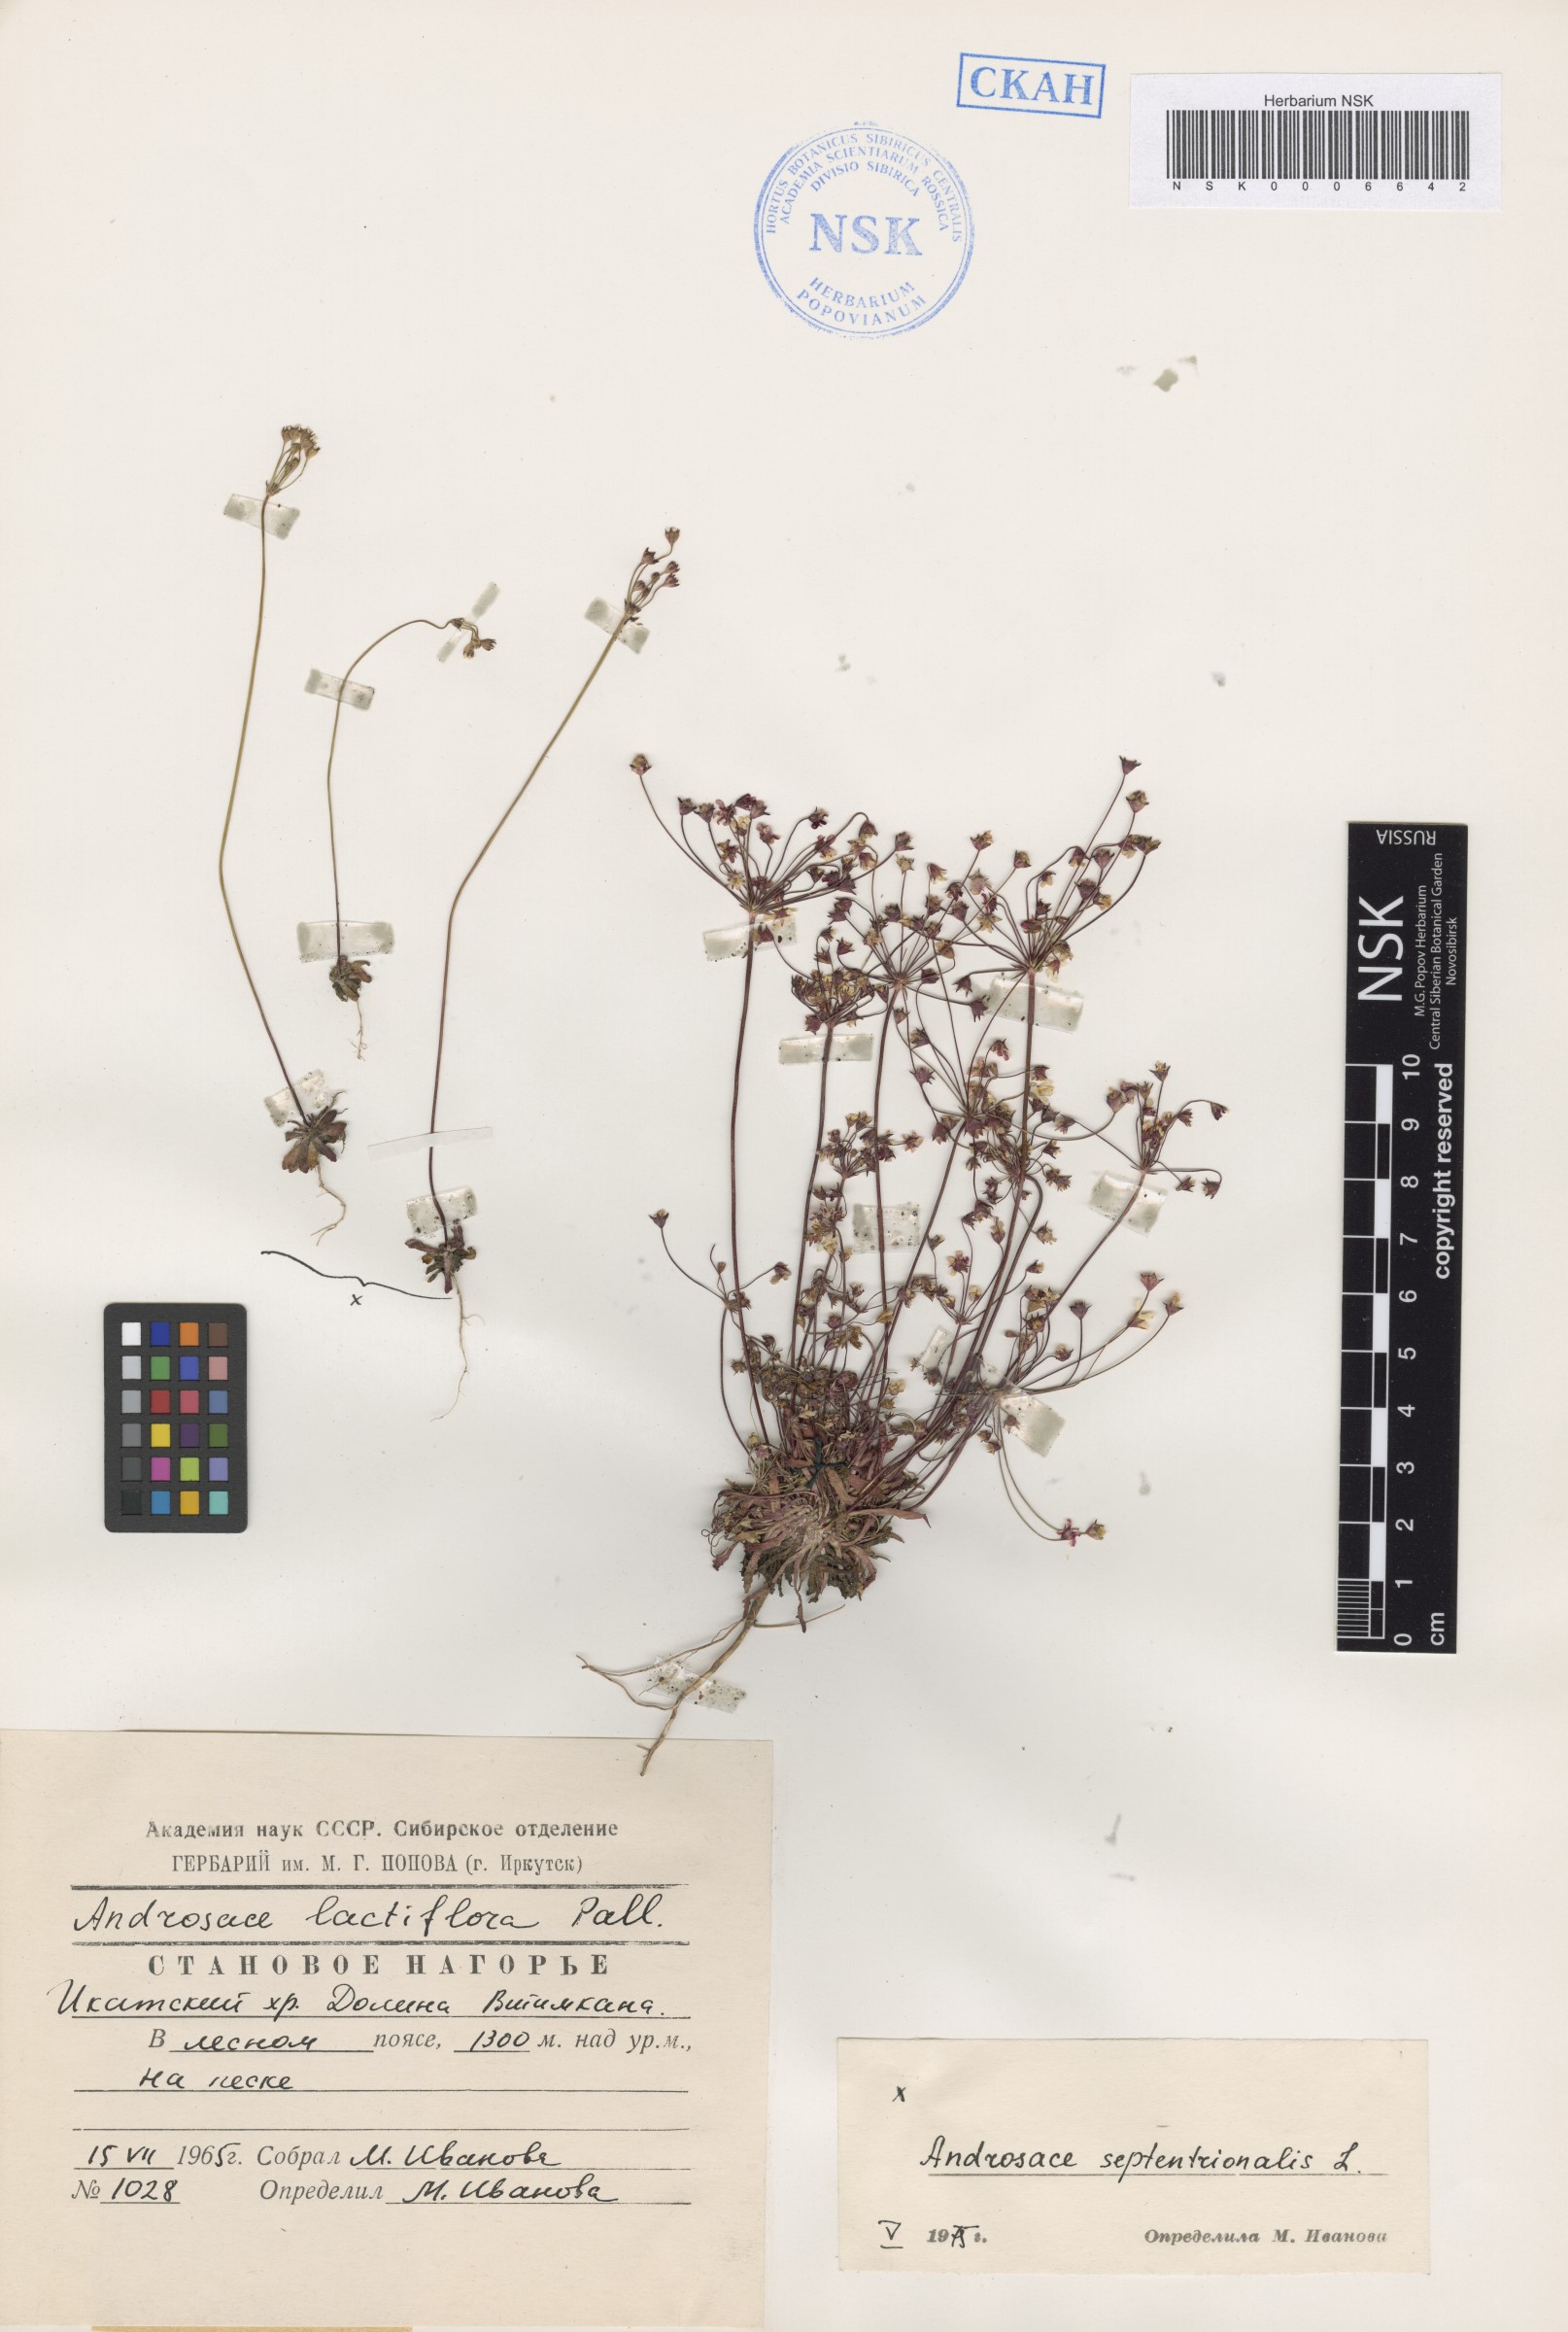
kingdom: Plantae
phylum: Tracheophyta
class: Magnoliopsida
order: Ericales
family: Primulaceae
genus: Androsace
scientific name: Androsace lactiflora
